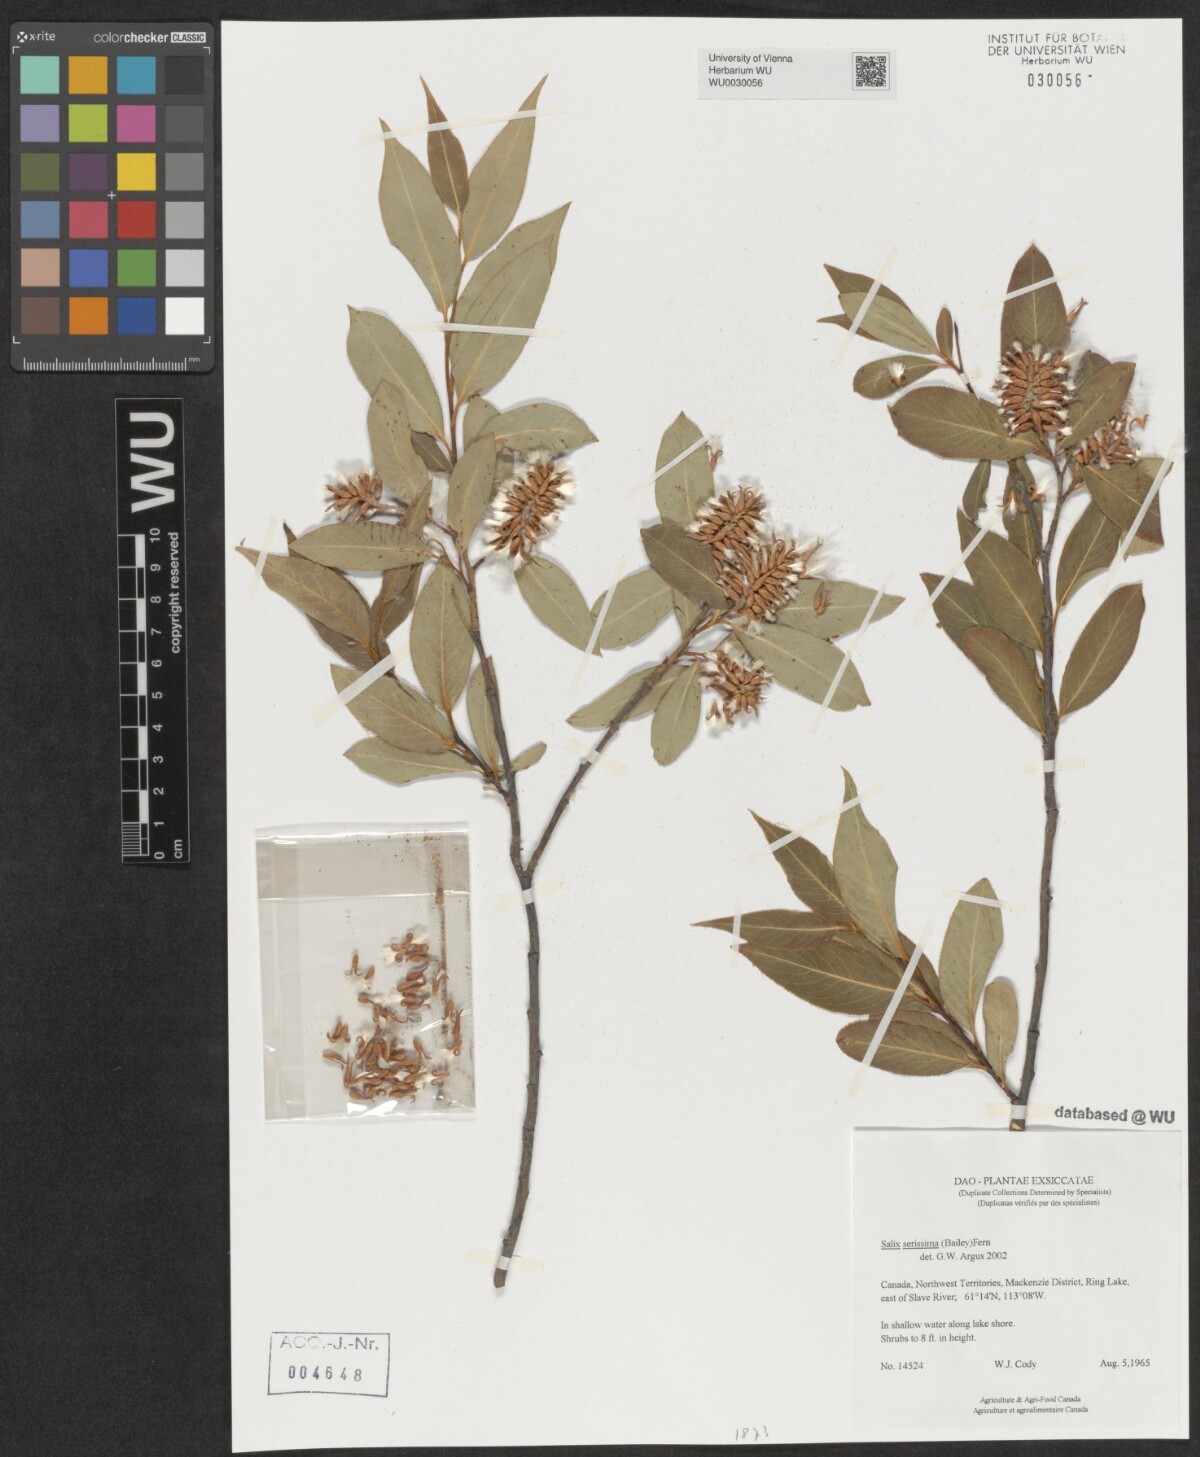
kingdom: Plantae
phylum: Tracheophyta
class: Magnoliopsida
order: Malpighiales
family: Salicaceae
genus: Salix
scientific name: Salix serissima
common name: Autumn willow
